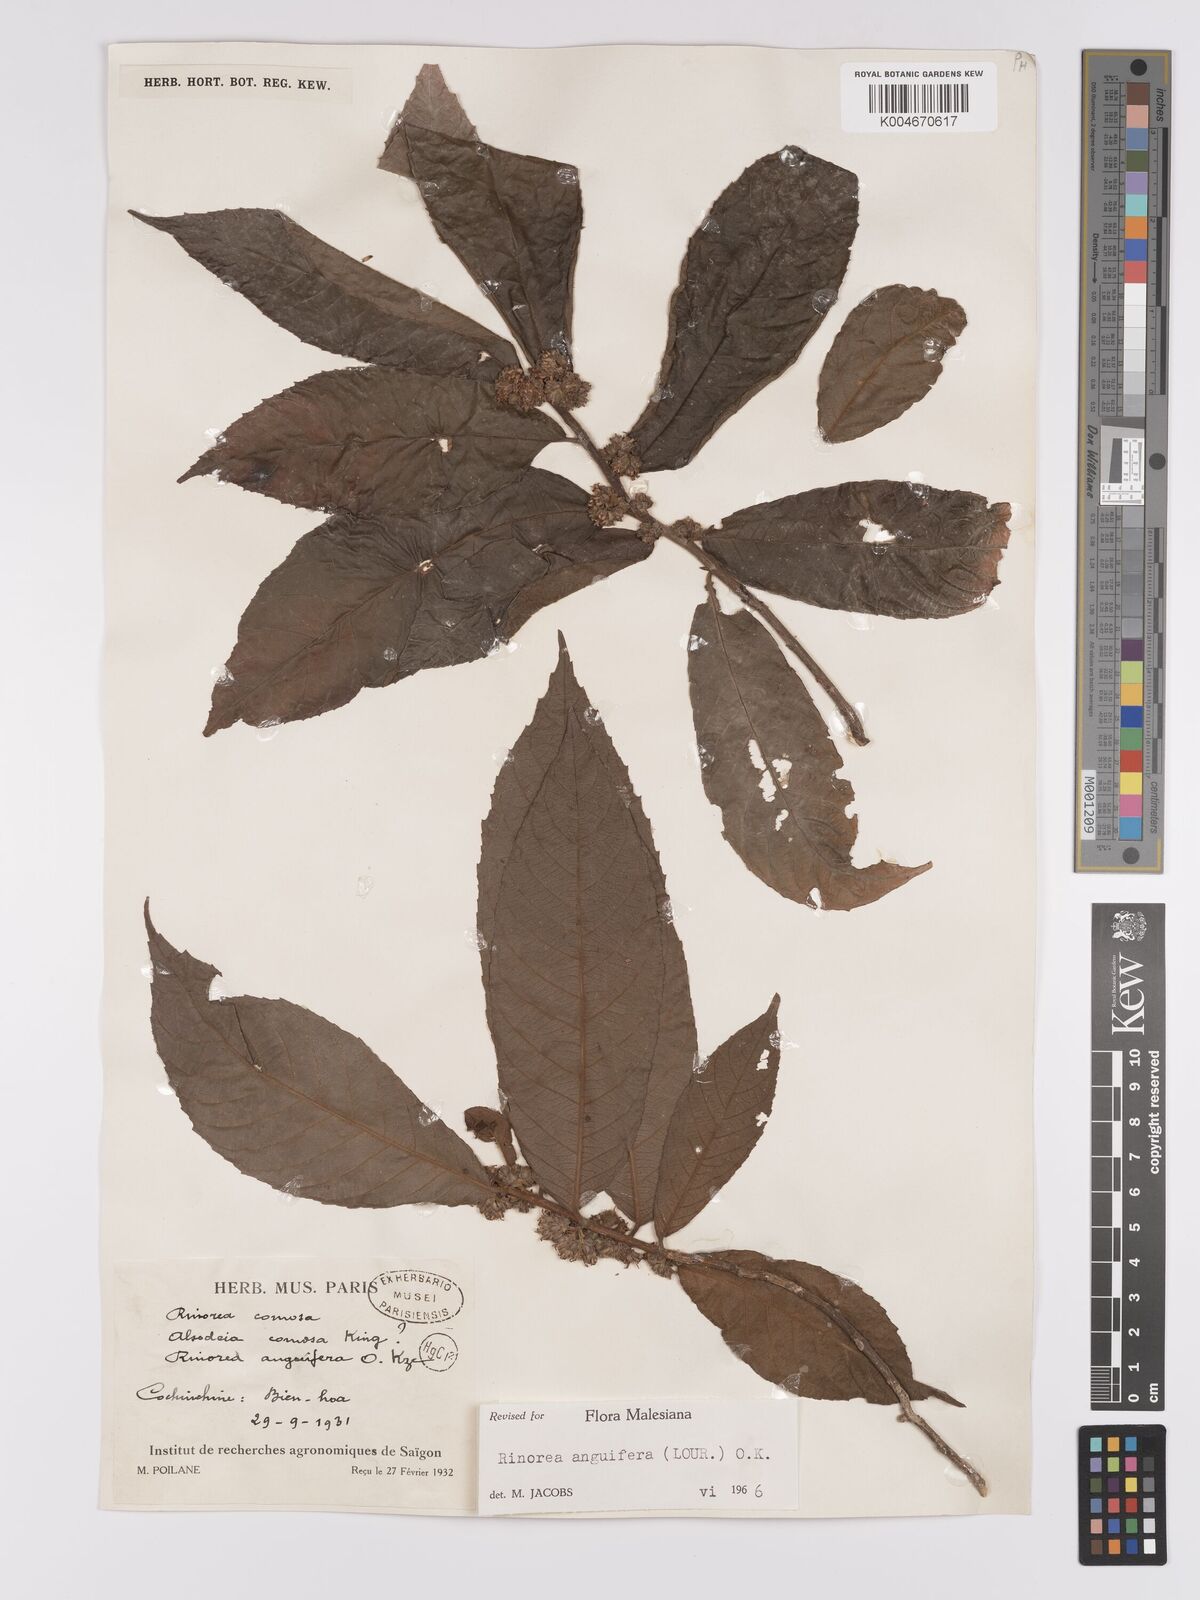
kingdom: Plantae
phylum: Tracheophyta
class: Magnoliopsida
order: Malpighiales
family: Violaceae
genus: Rinorea
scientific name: Rinorea anguifera
